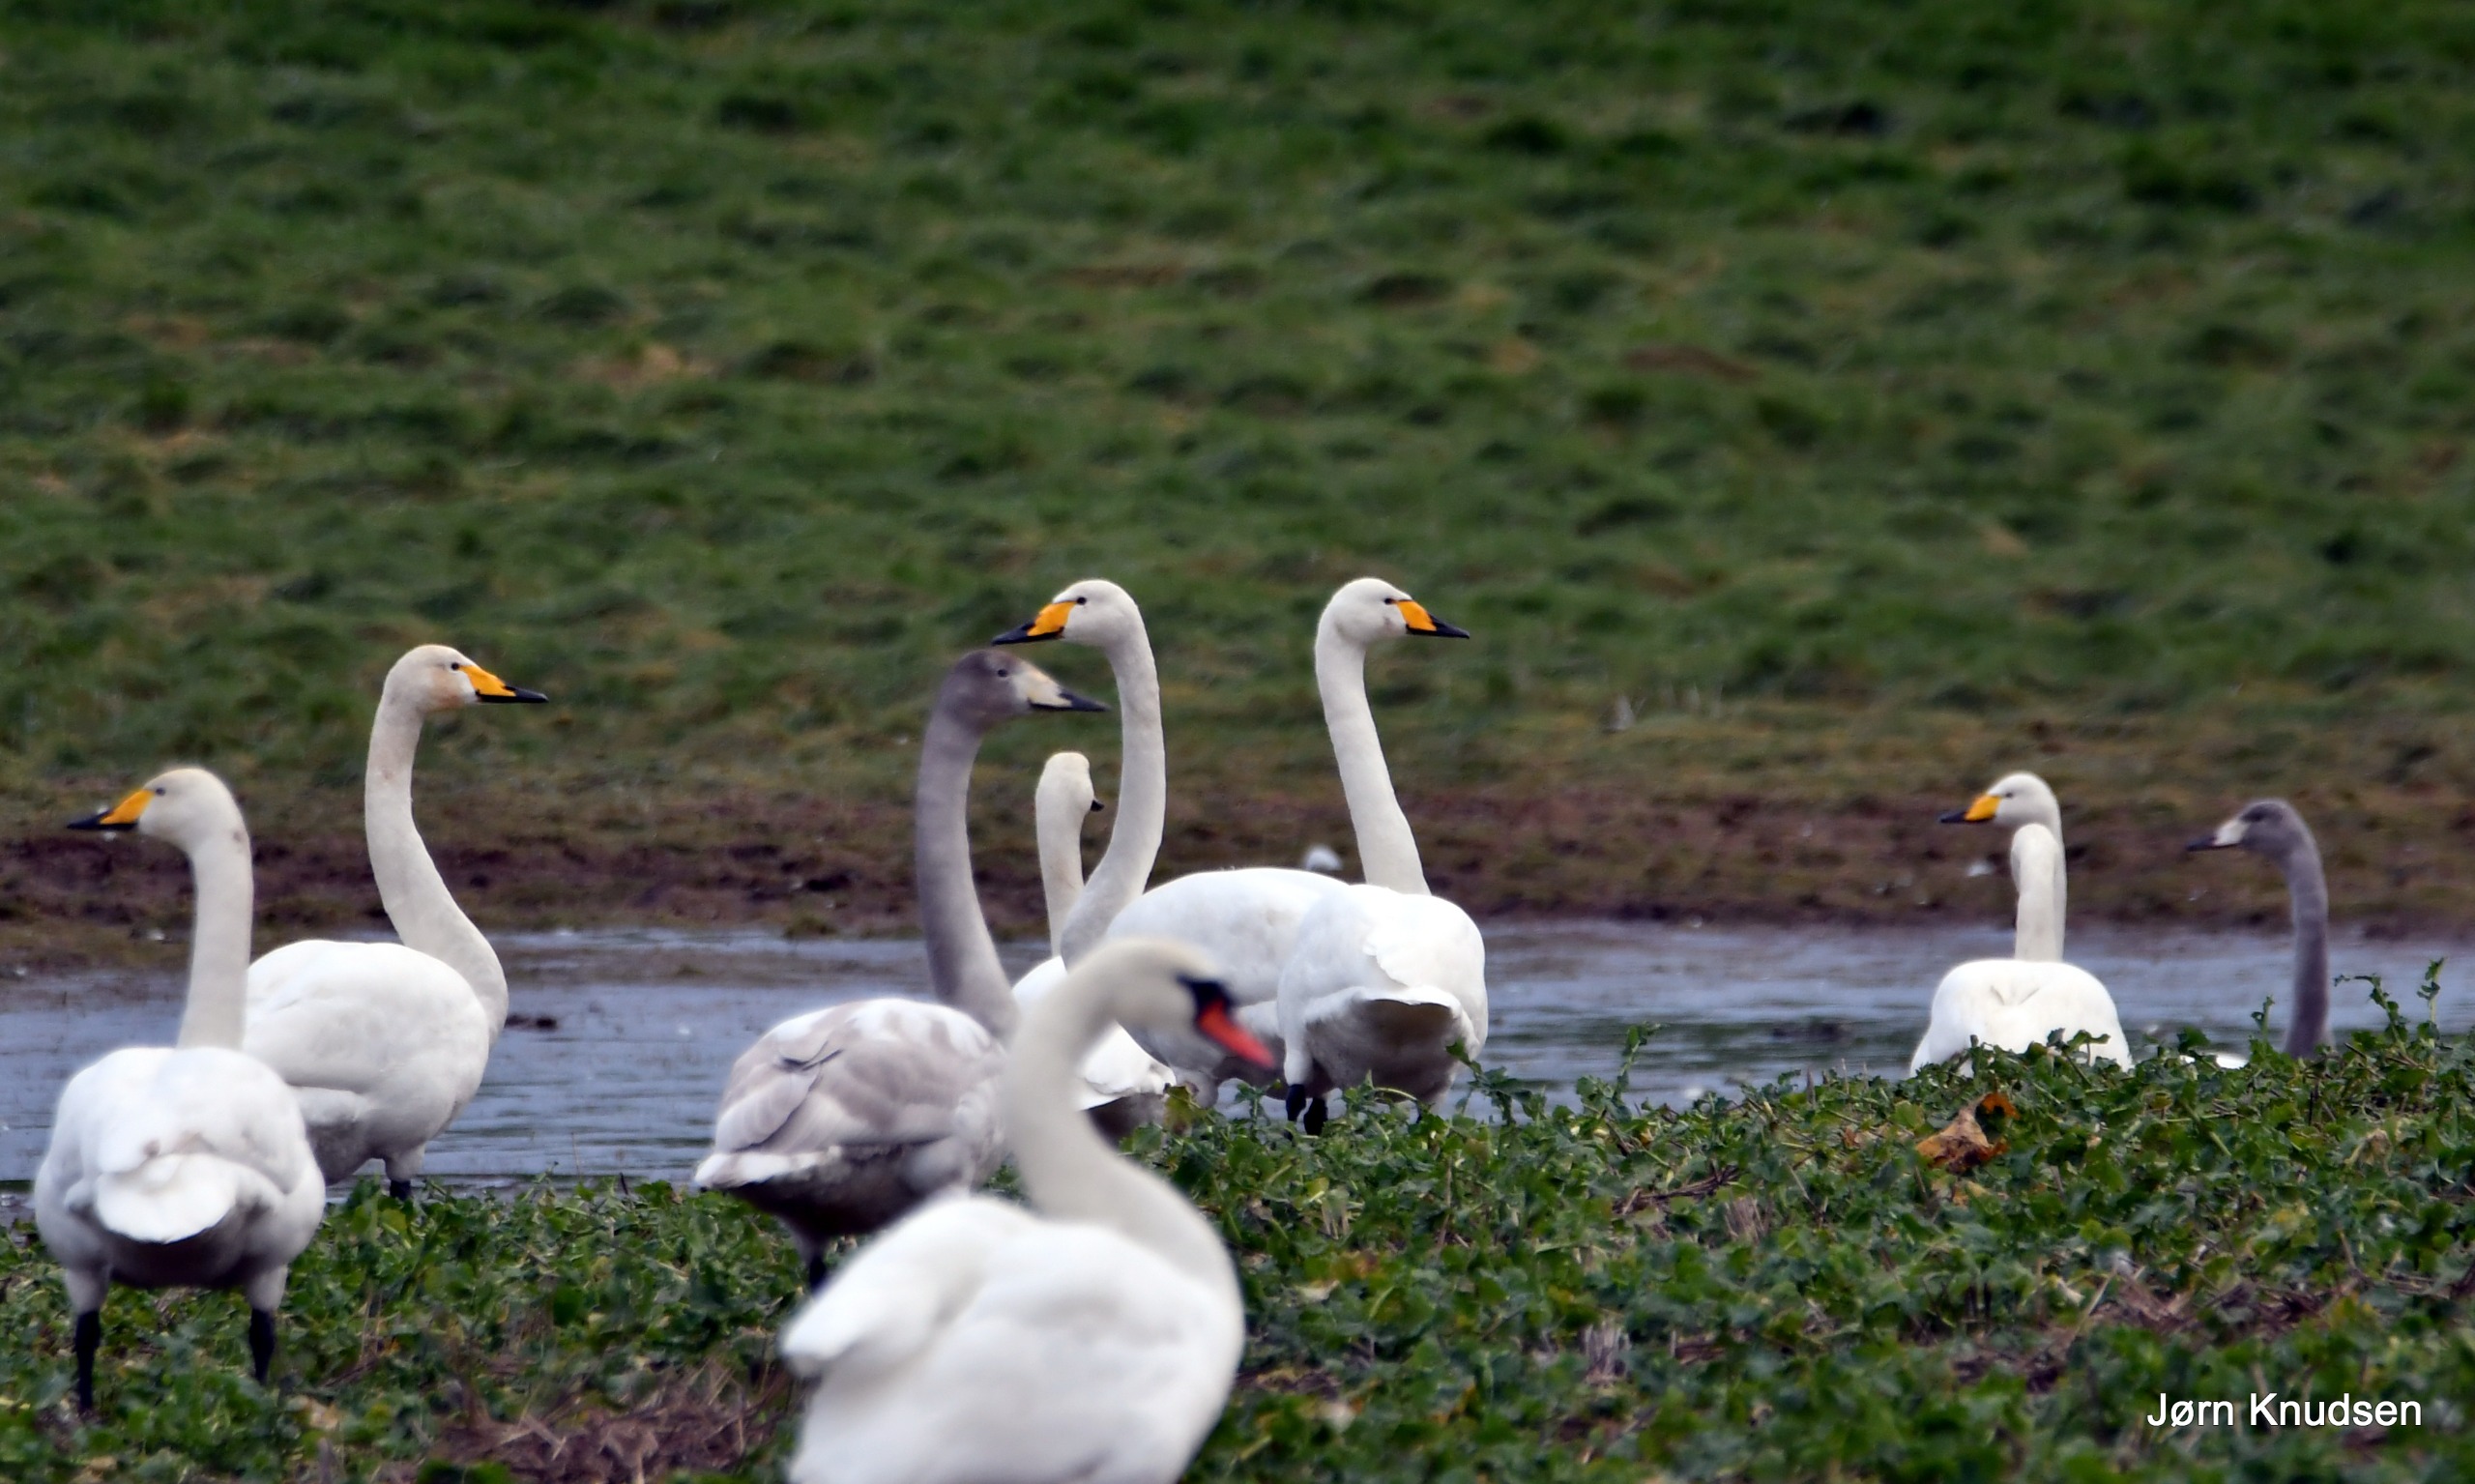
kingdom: Animalia
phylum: Chordata
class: Aves
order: Anseriformes
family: Anatidae
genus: Cygnus
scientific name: Cygnus cygnus
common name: Sangsvane
